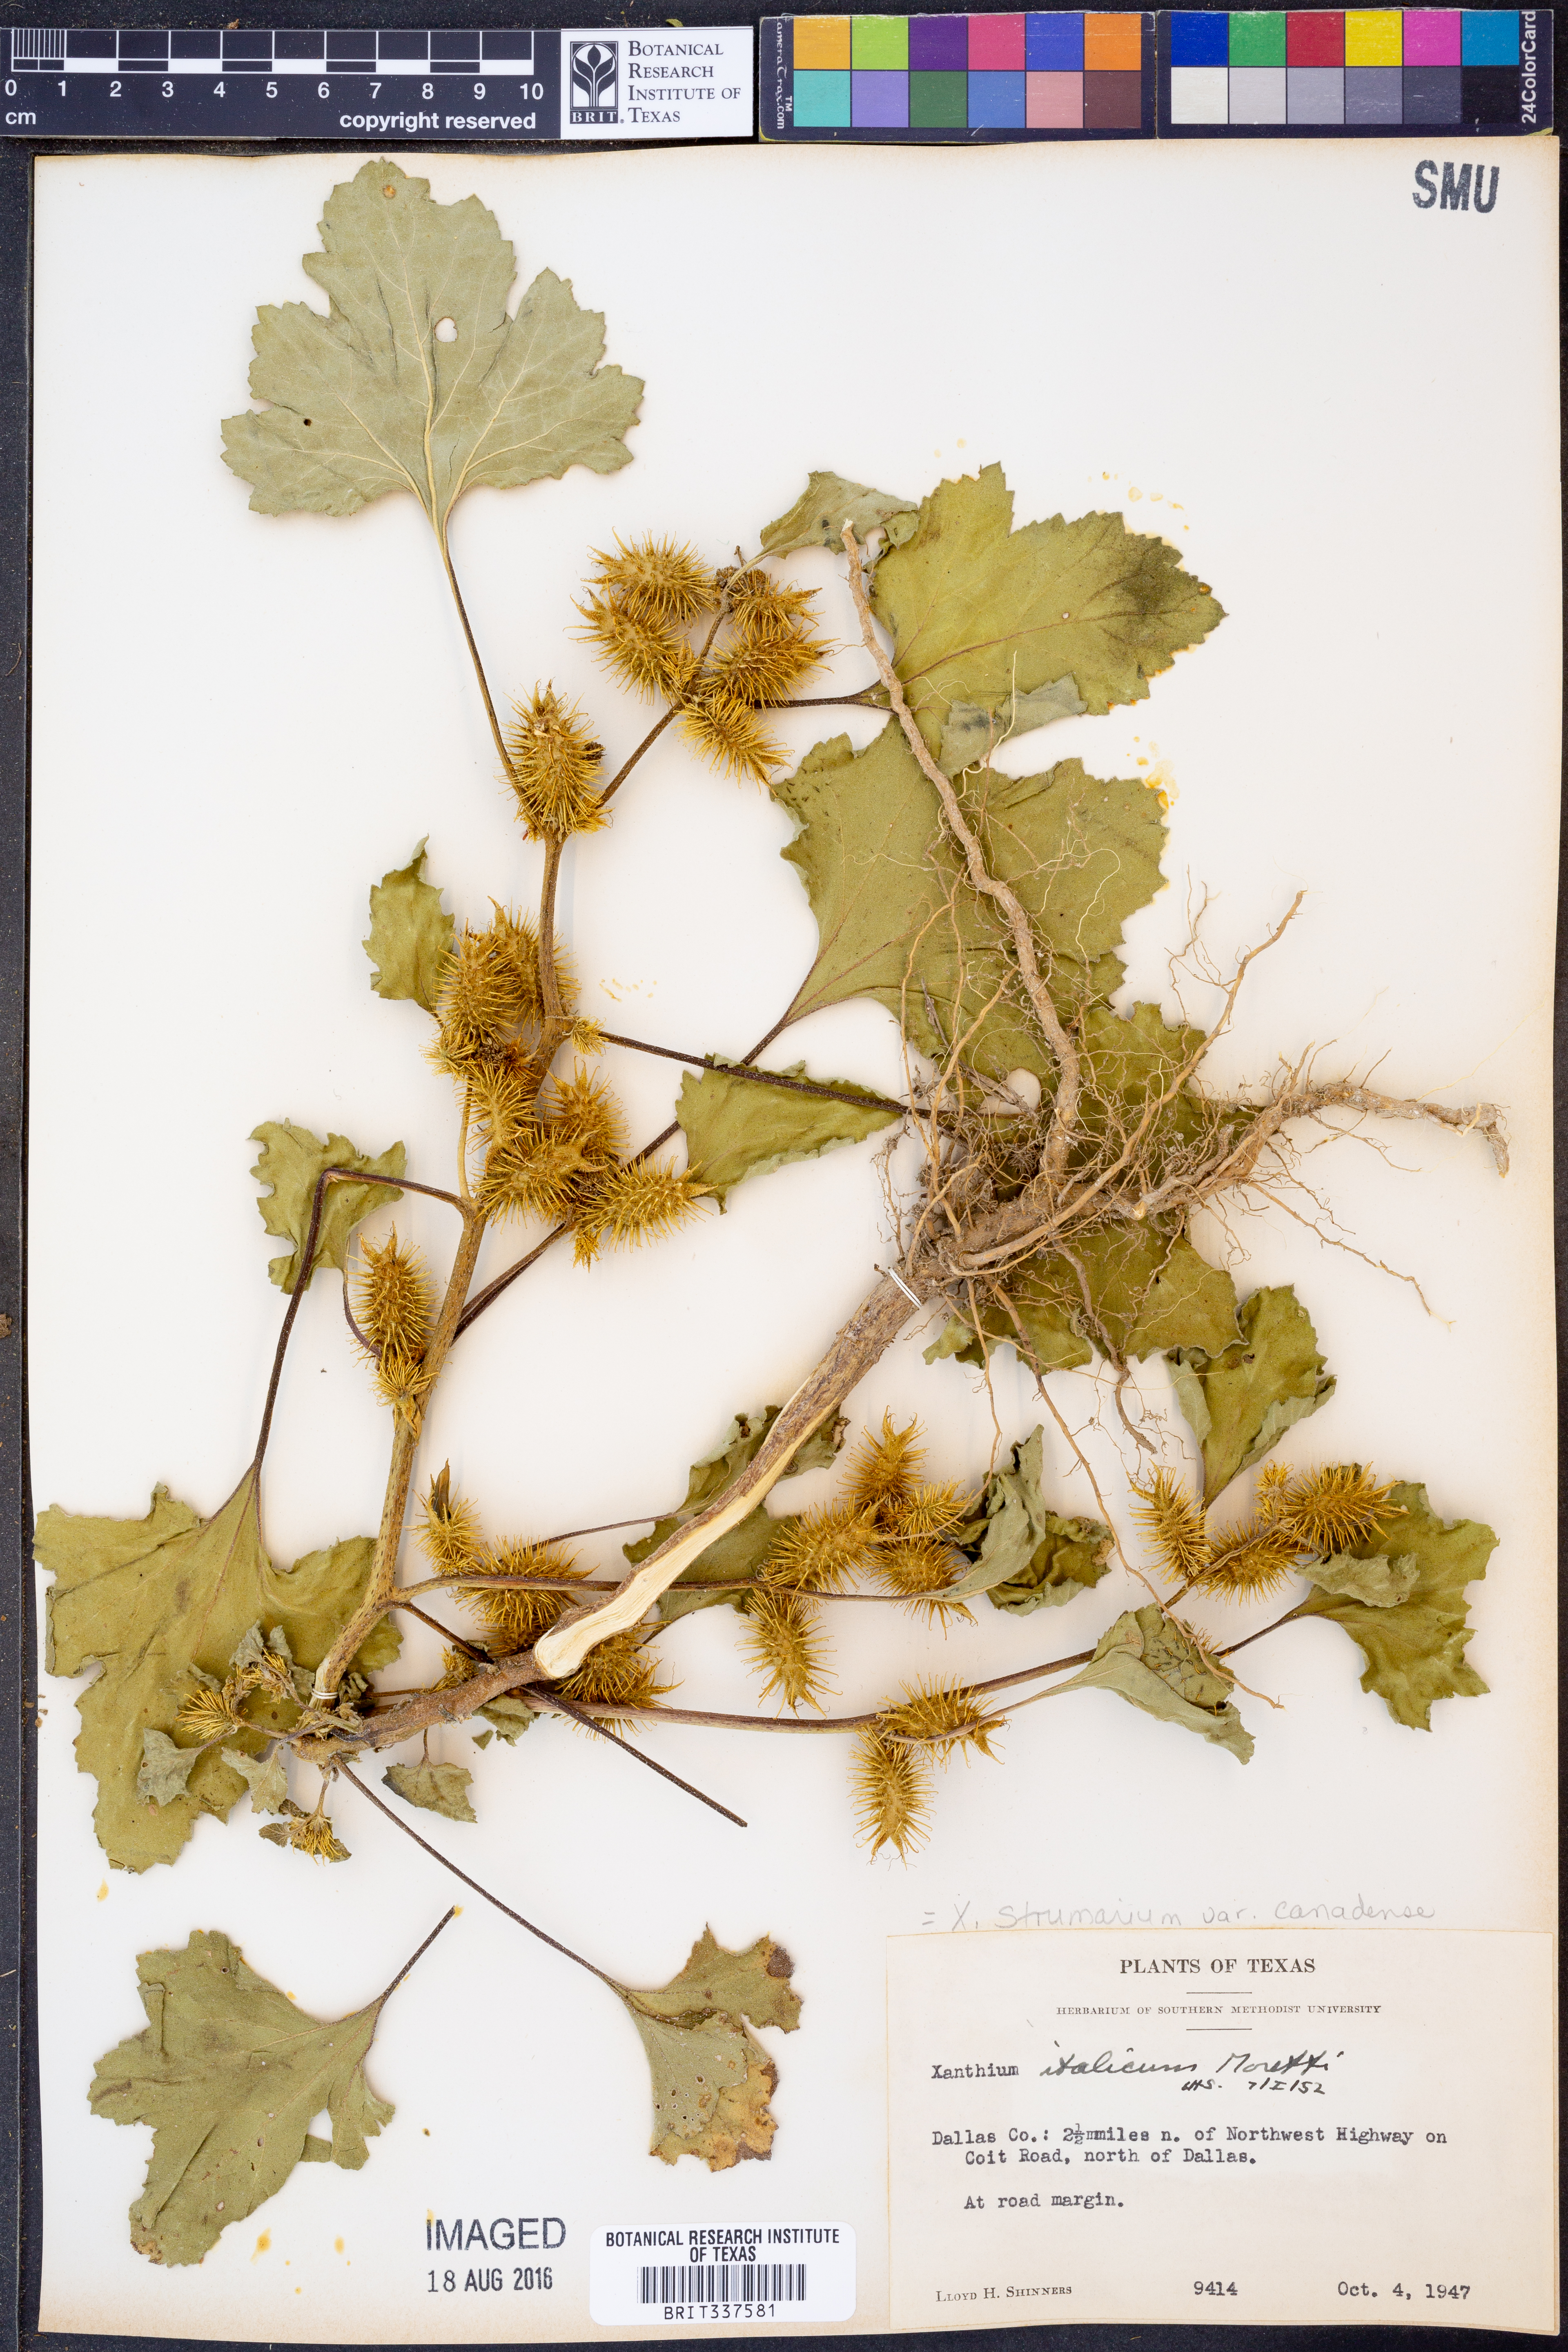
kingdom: Plantae
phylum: Tracheophyta
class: Magnoliopsida
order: Asterales
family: Asteraceae
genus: Xanthium
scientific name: Xanthium orientale
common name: Californian burr
